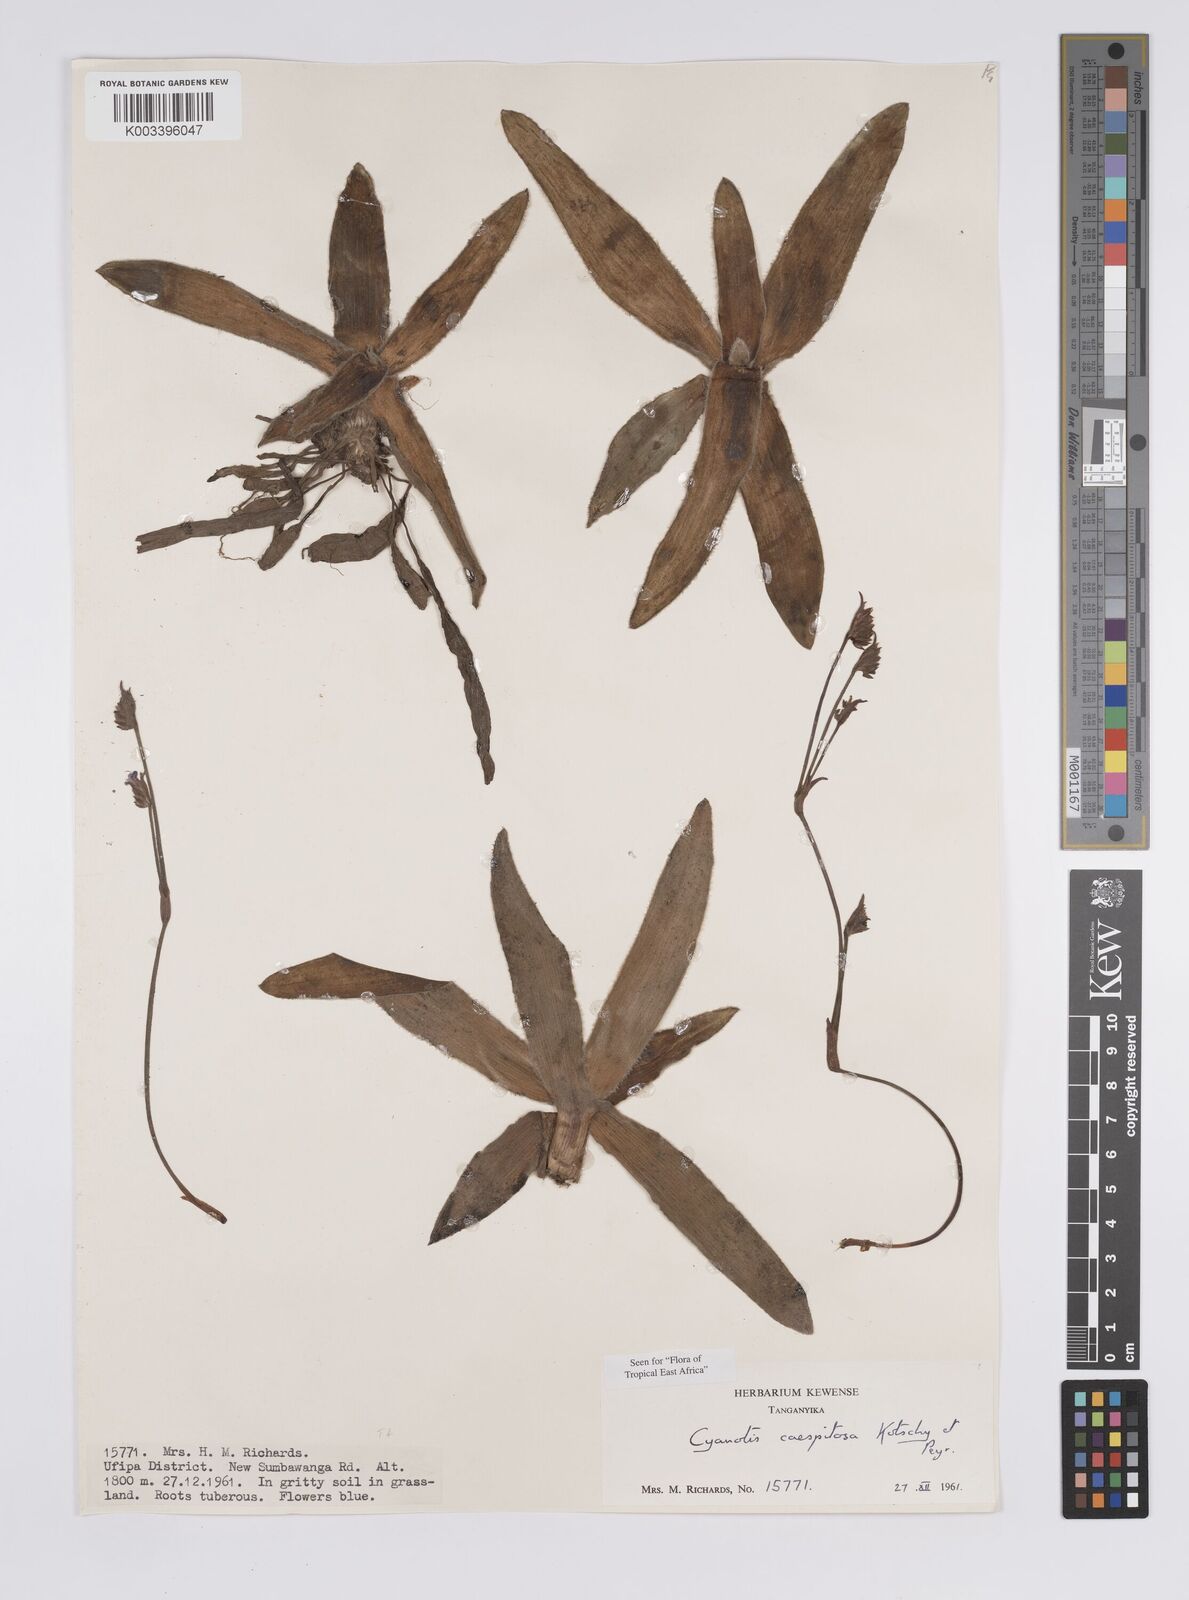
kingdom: Plantae
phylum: Tracheophyta
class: Liliopsida
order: Commelinales
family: Commelinaceae
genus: Cyanotis
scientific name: Cyanotis caespitosa
